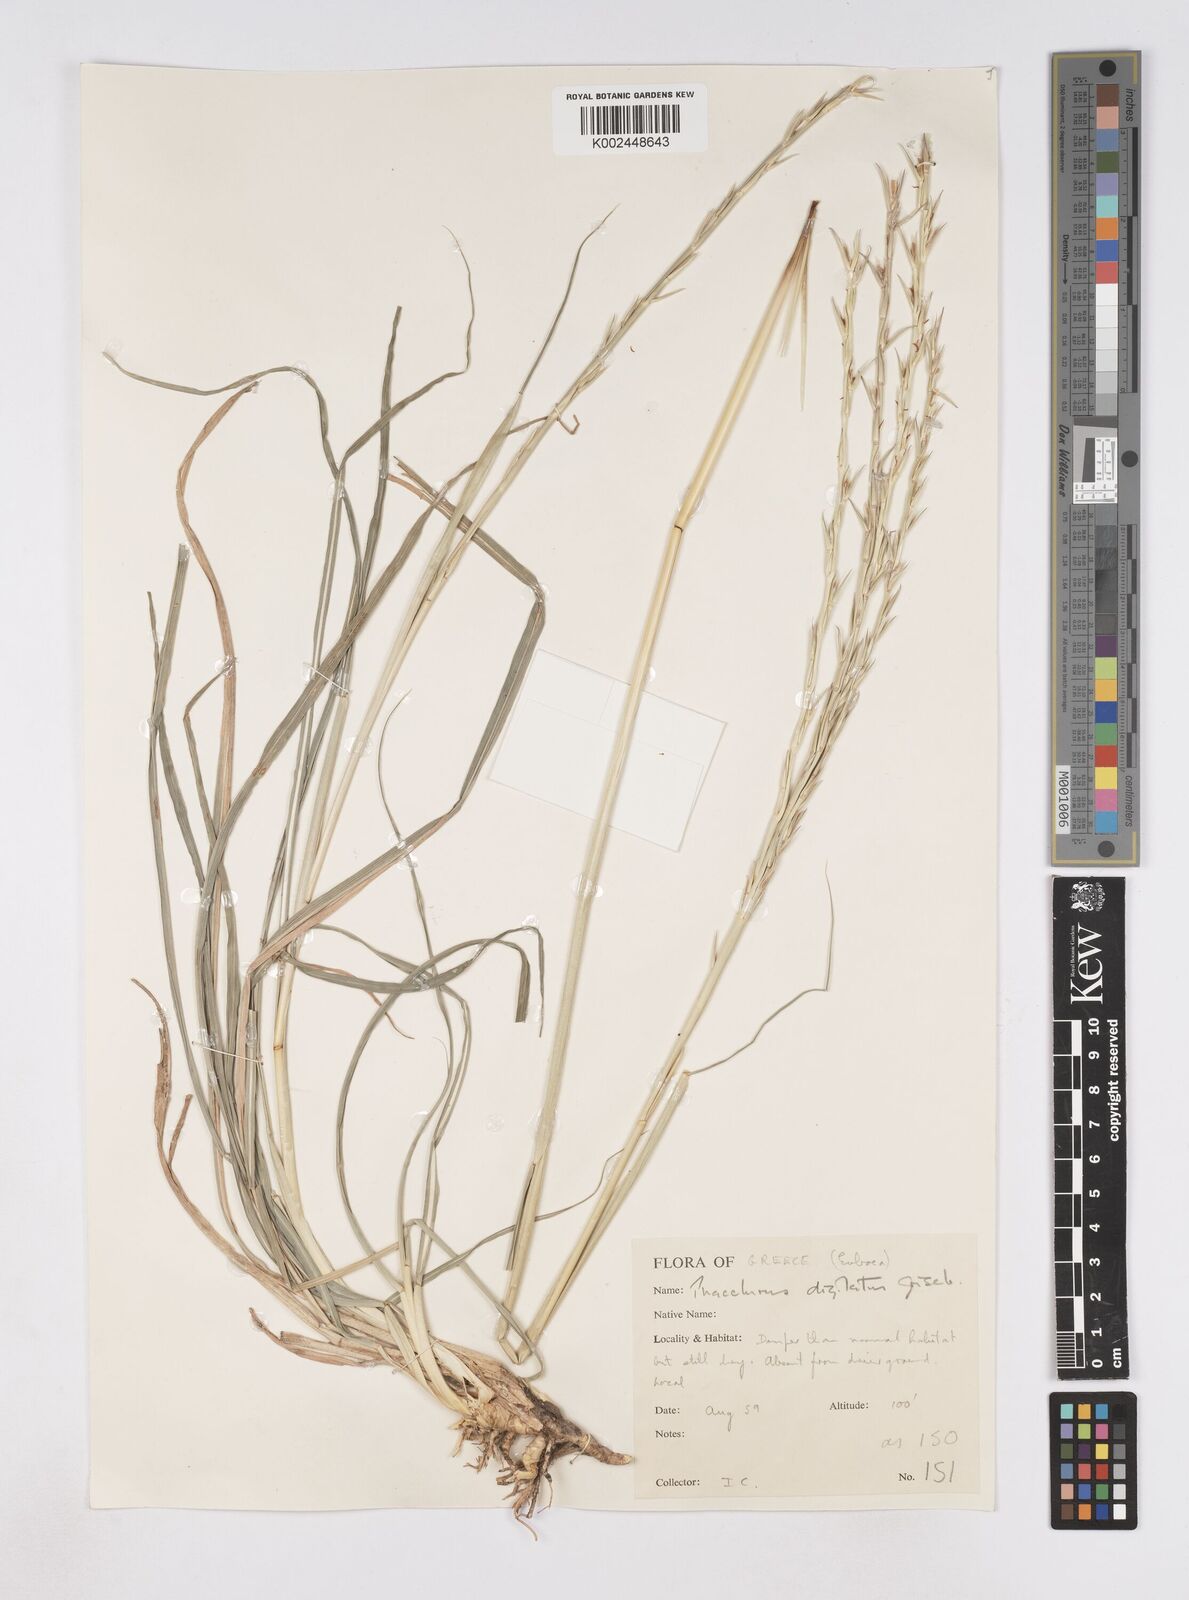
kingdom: Plantae
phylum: Tracheophyta
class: Liliopsida
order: Poales
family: Poaceae
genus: Phacelurus
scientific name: Phacelurus digitatus
